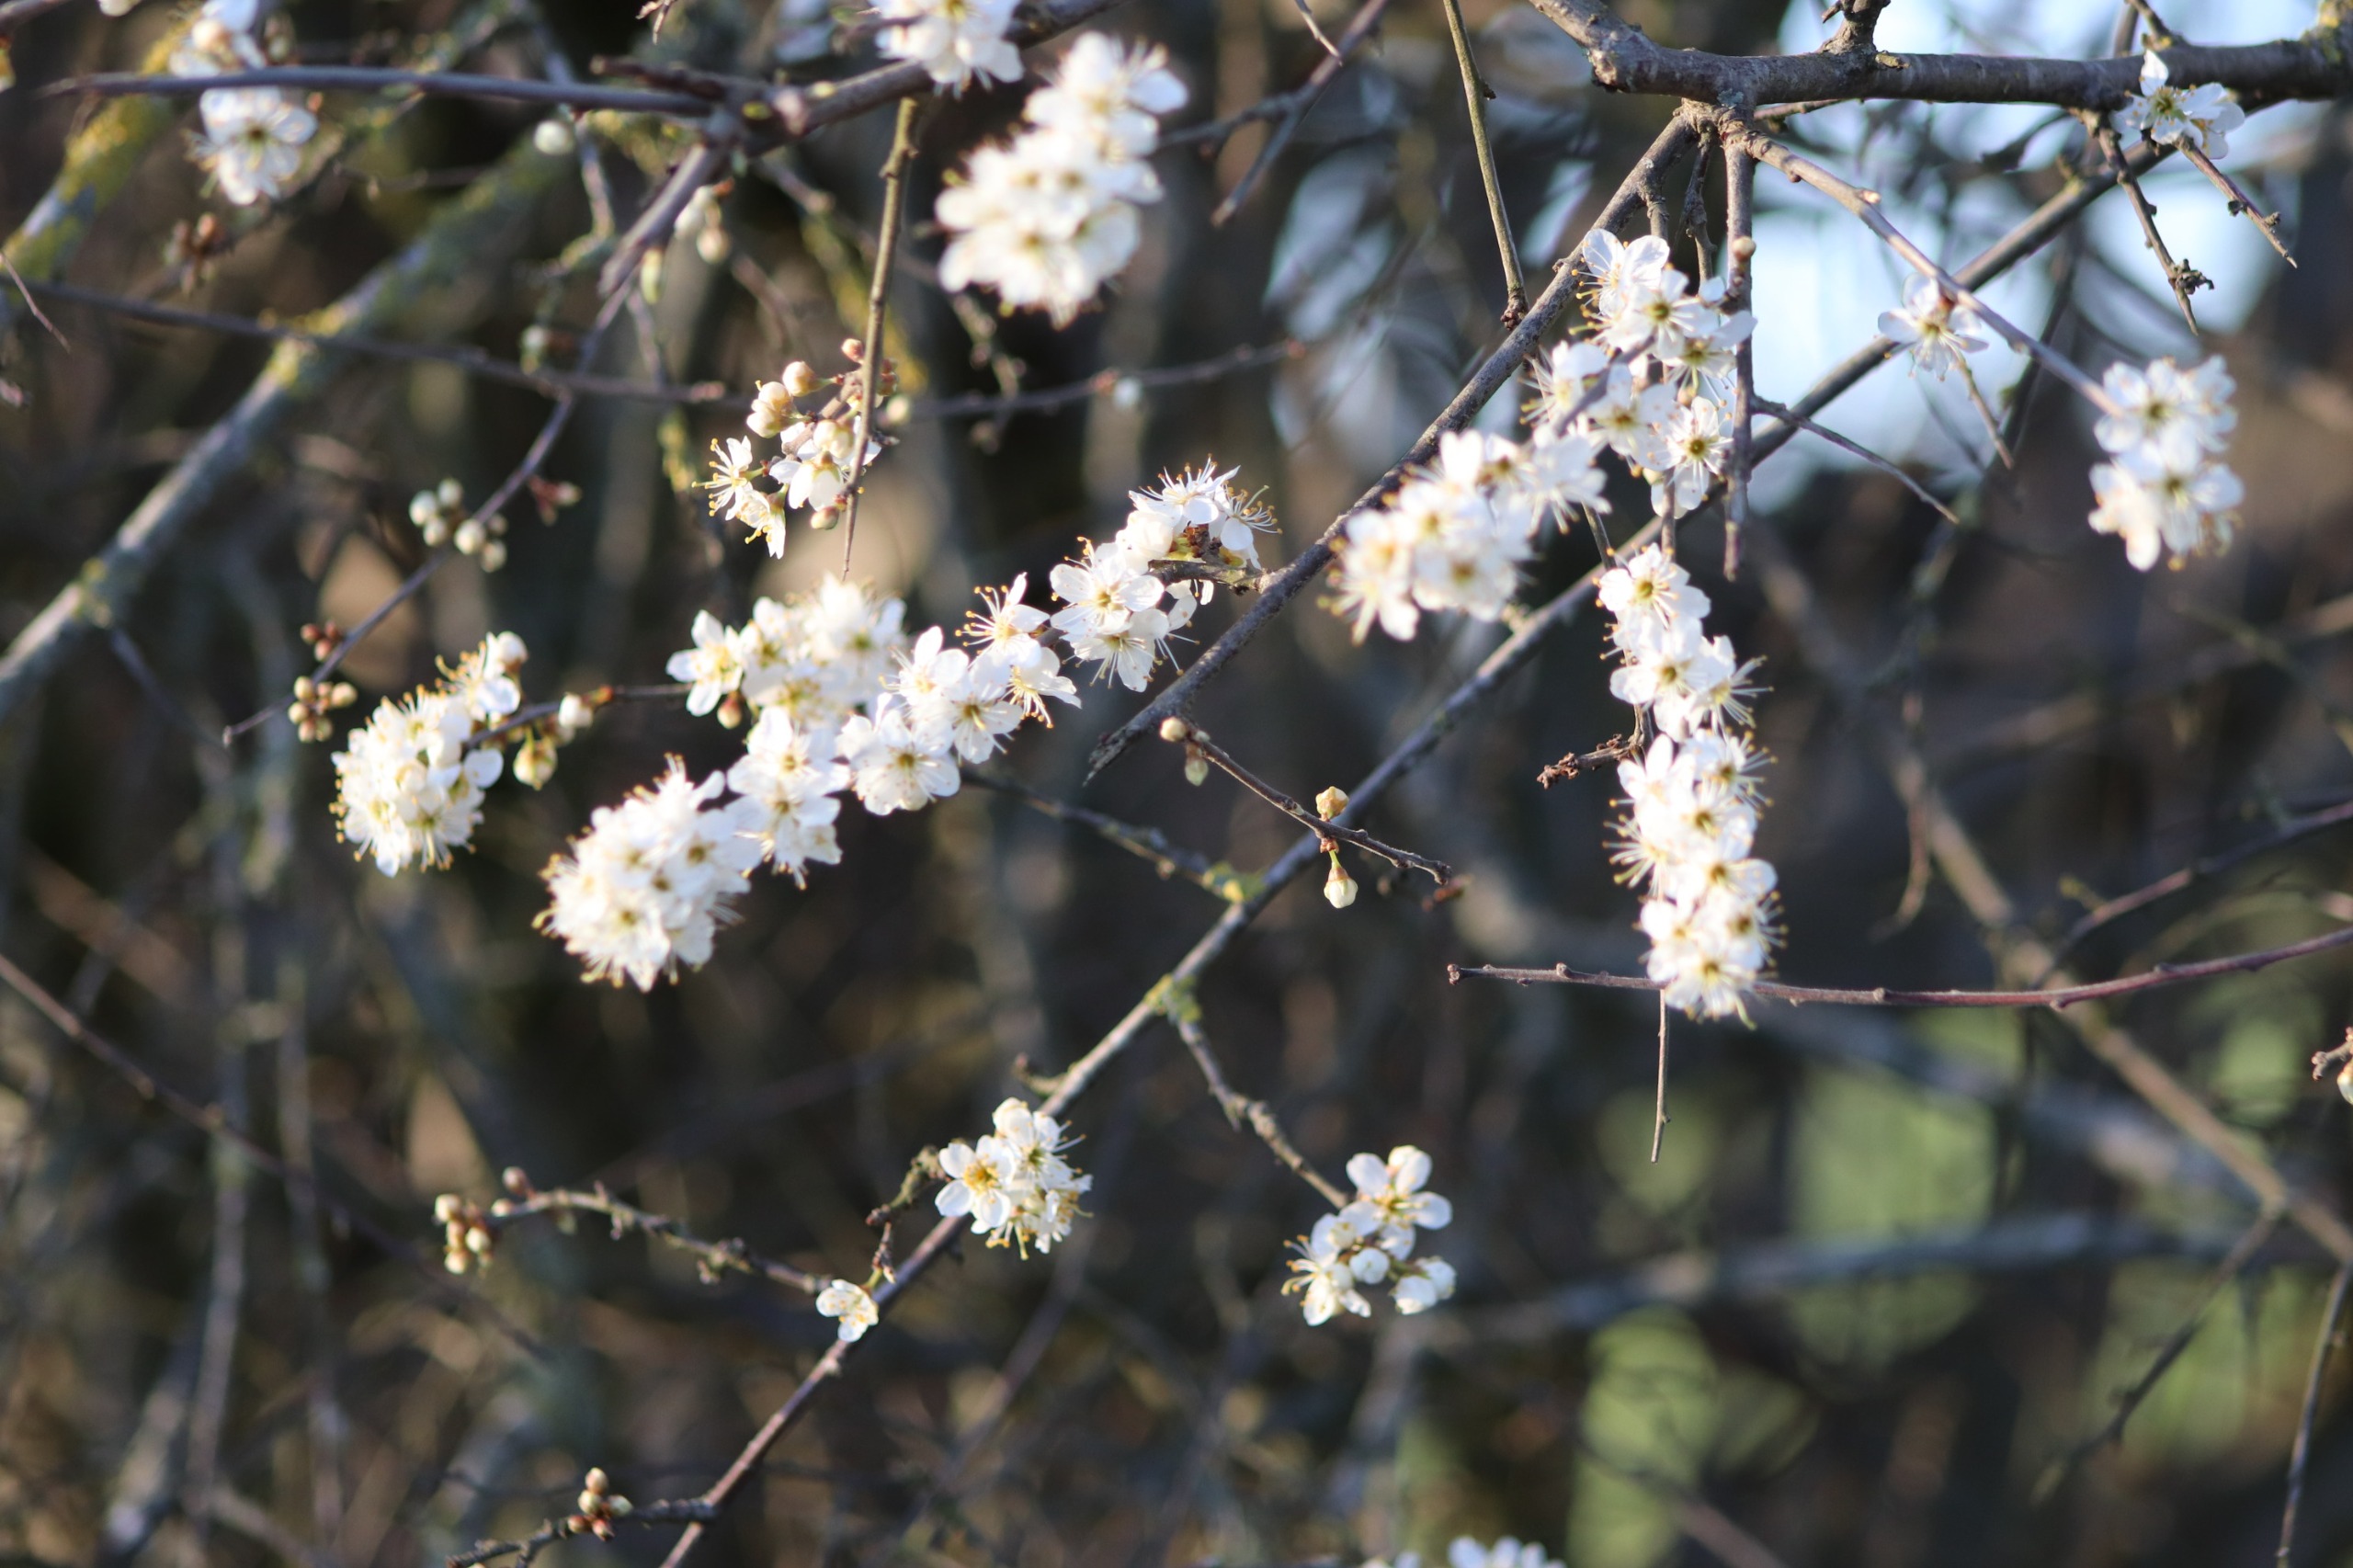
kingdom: Plantae
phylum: Tracheophyta
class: Magnoliopsida
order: Rosales
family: Rosaceae
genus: Prunus
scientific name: Prunus spinosa
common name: Slåen
